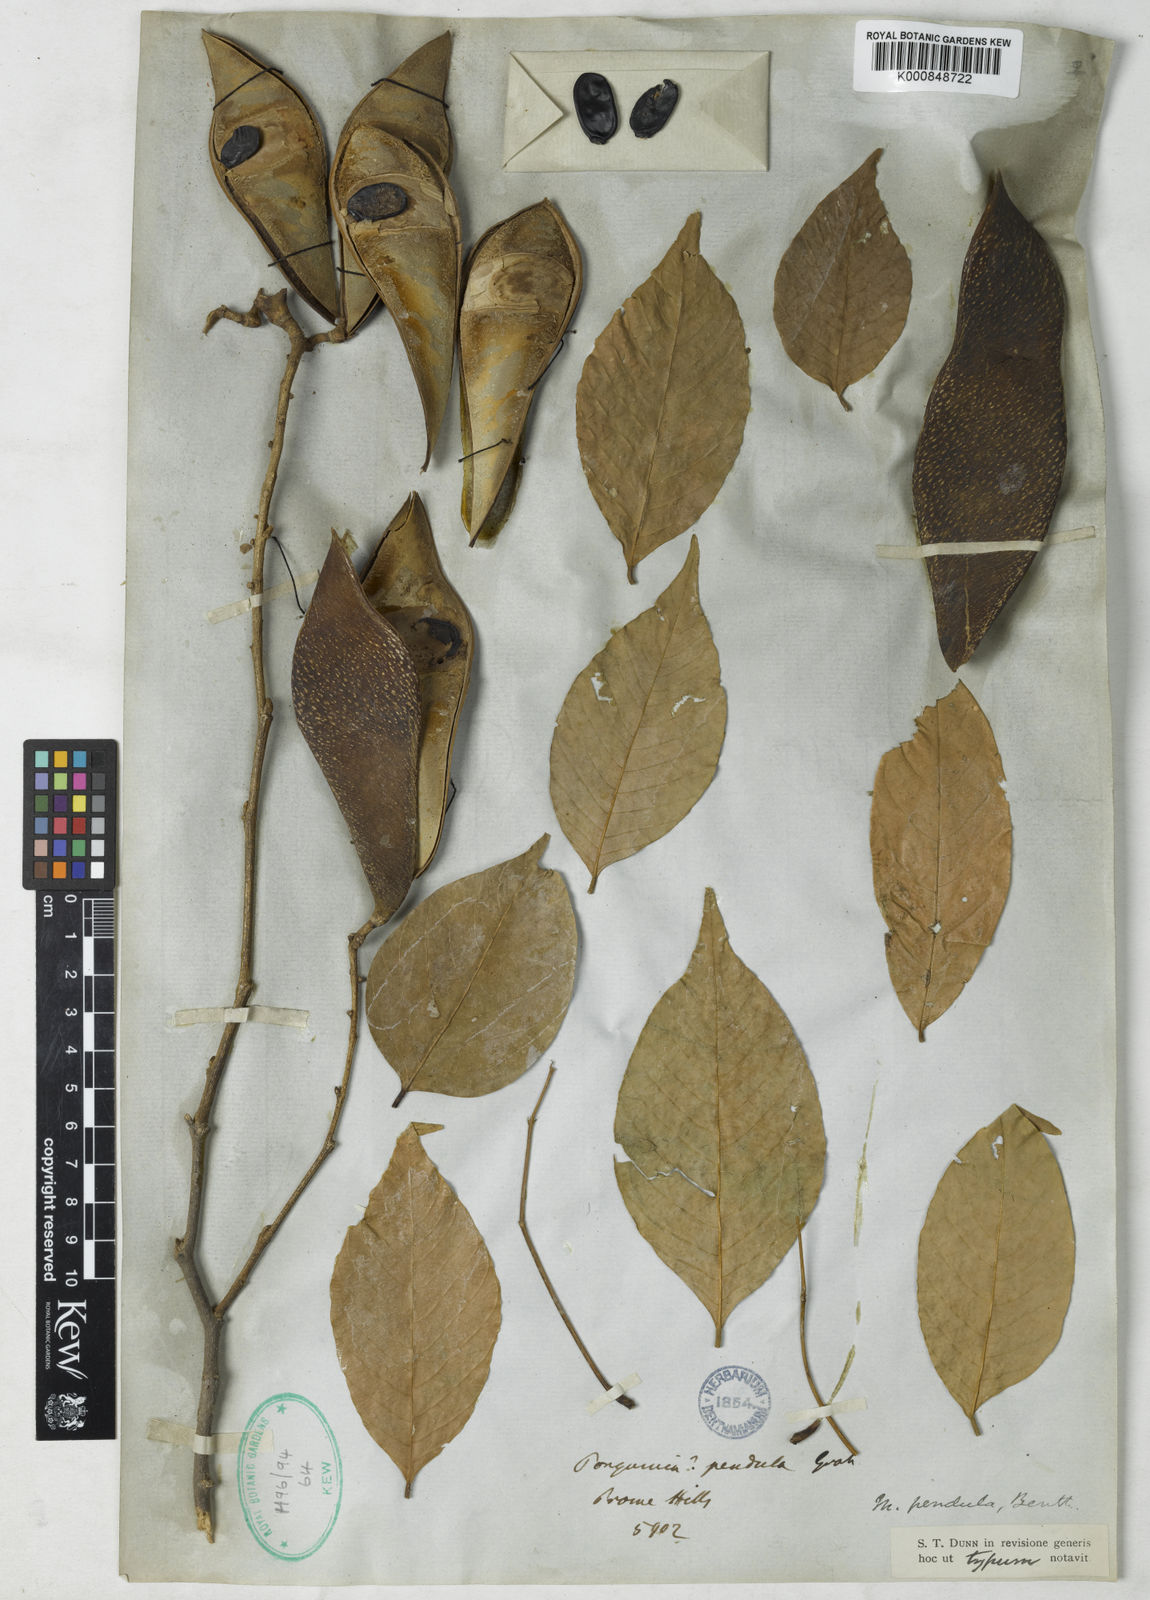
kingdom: Plantae
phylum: Tracheophyta
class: Magnoliopsida
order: Fabales
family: Fabaceae
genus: Imbralyx
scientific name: Imbralyx leucanthus
